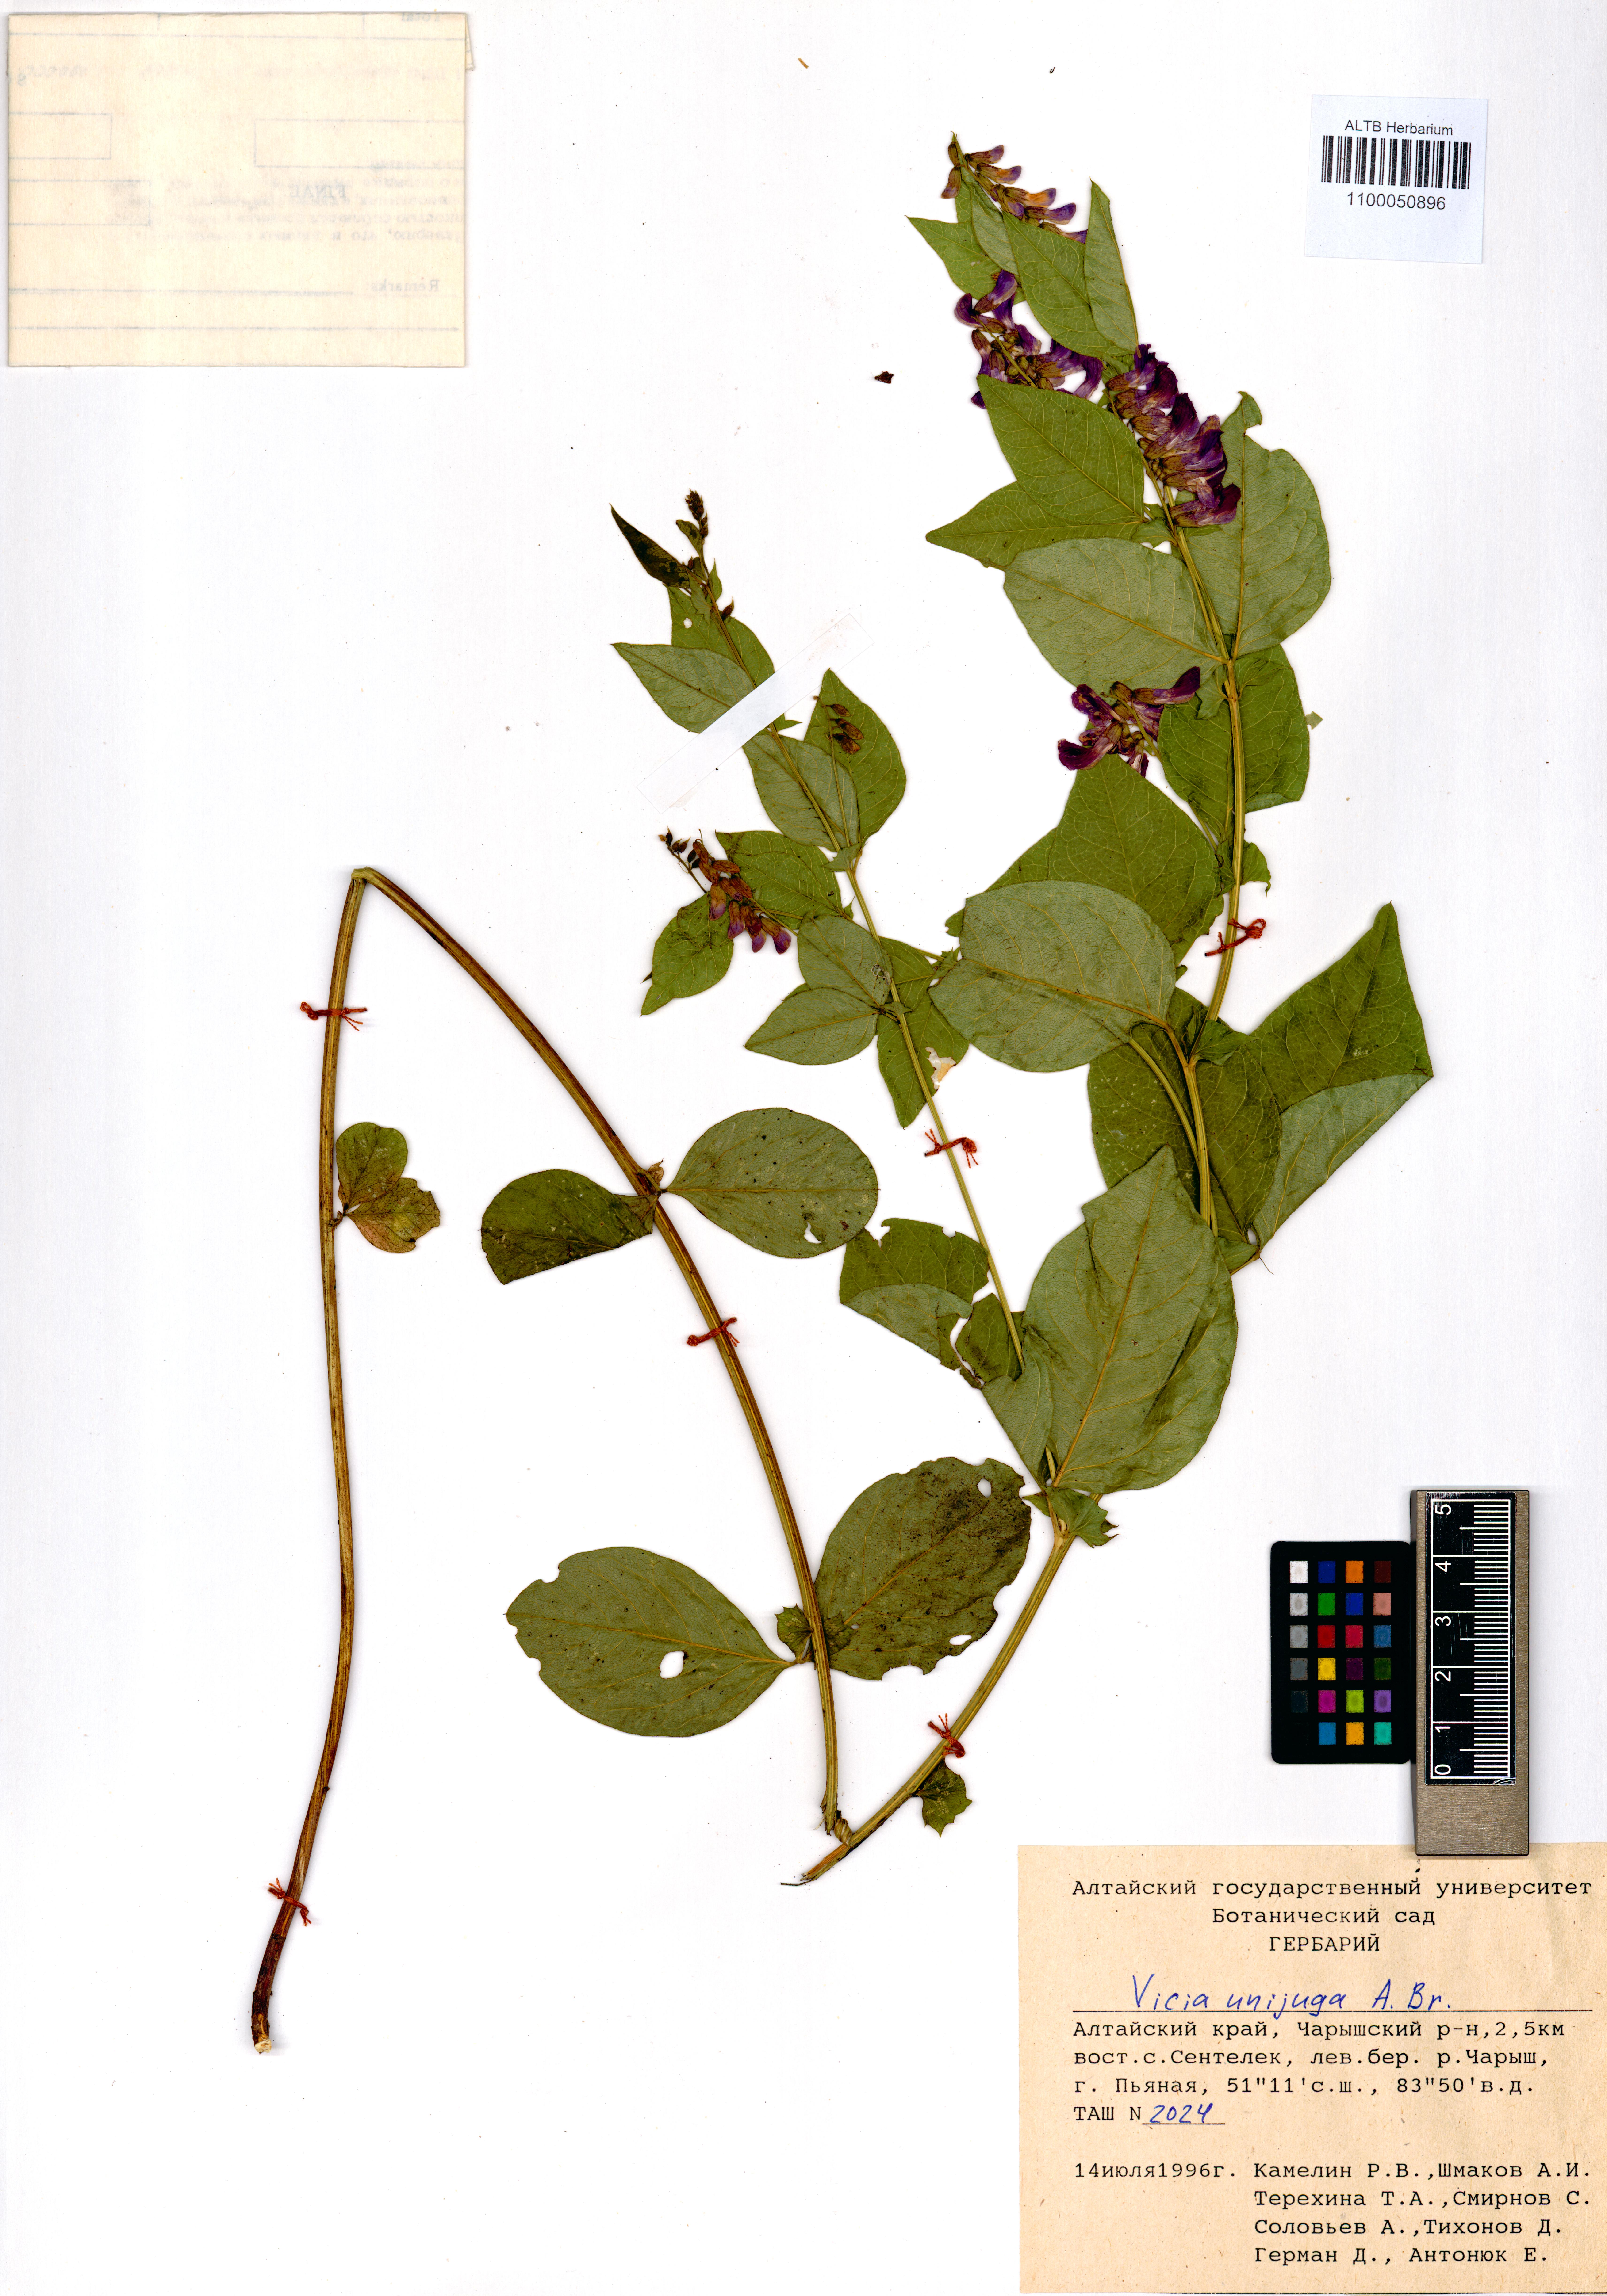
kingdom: Plantae
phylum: Tracheophyta
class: Magnoliopsida
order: Fabales
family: Fabaceae
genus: Vicia
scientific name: Vicia unijuga
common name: Two-leaf vetch
